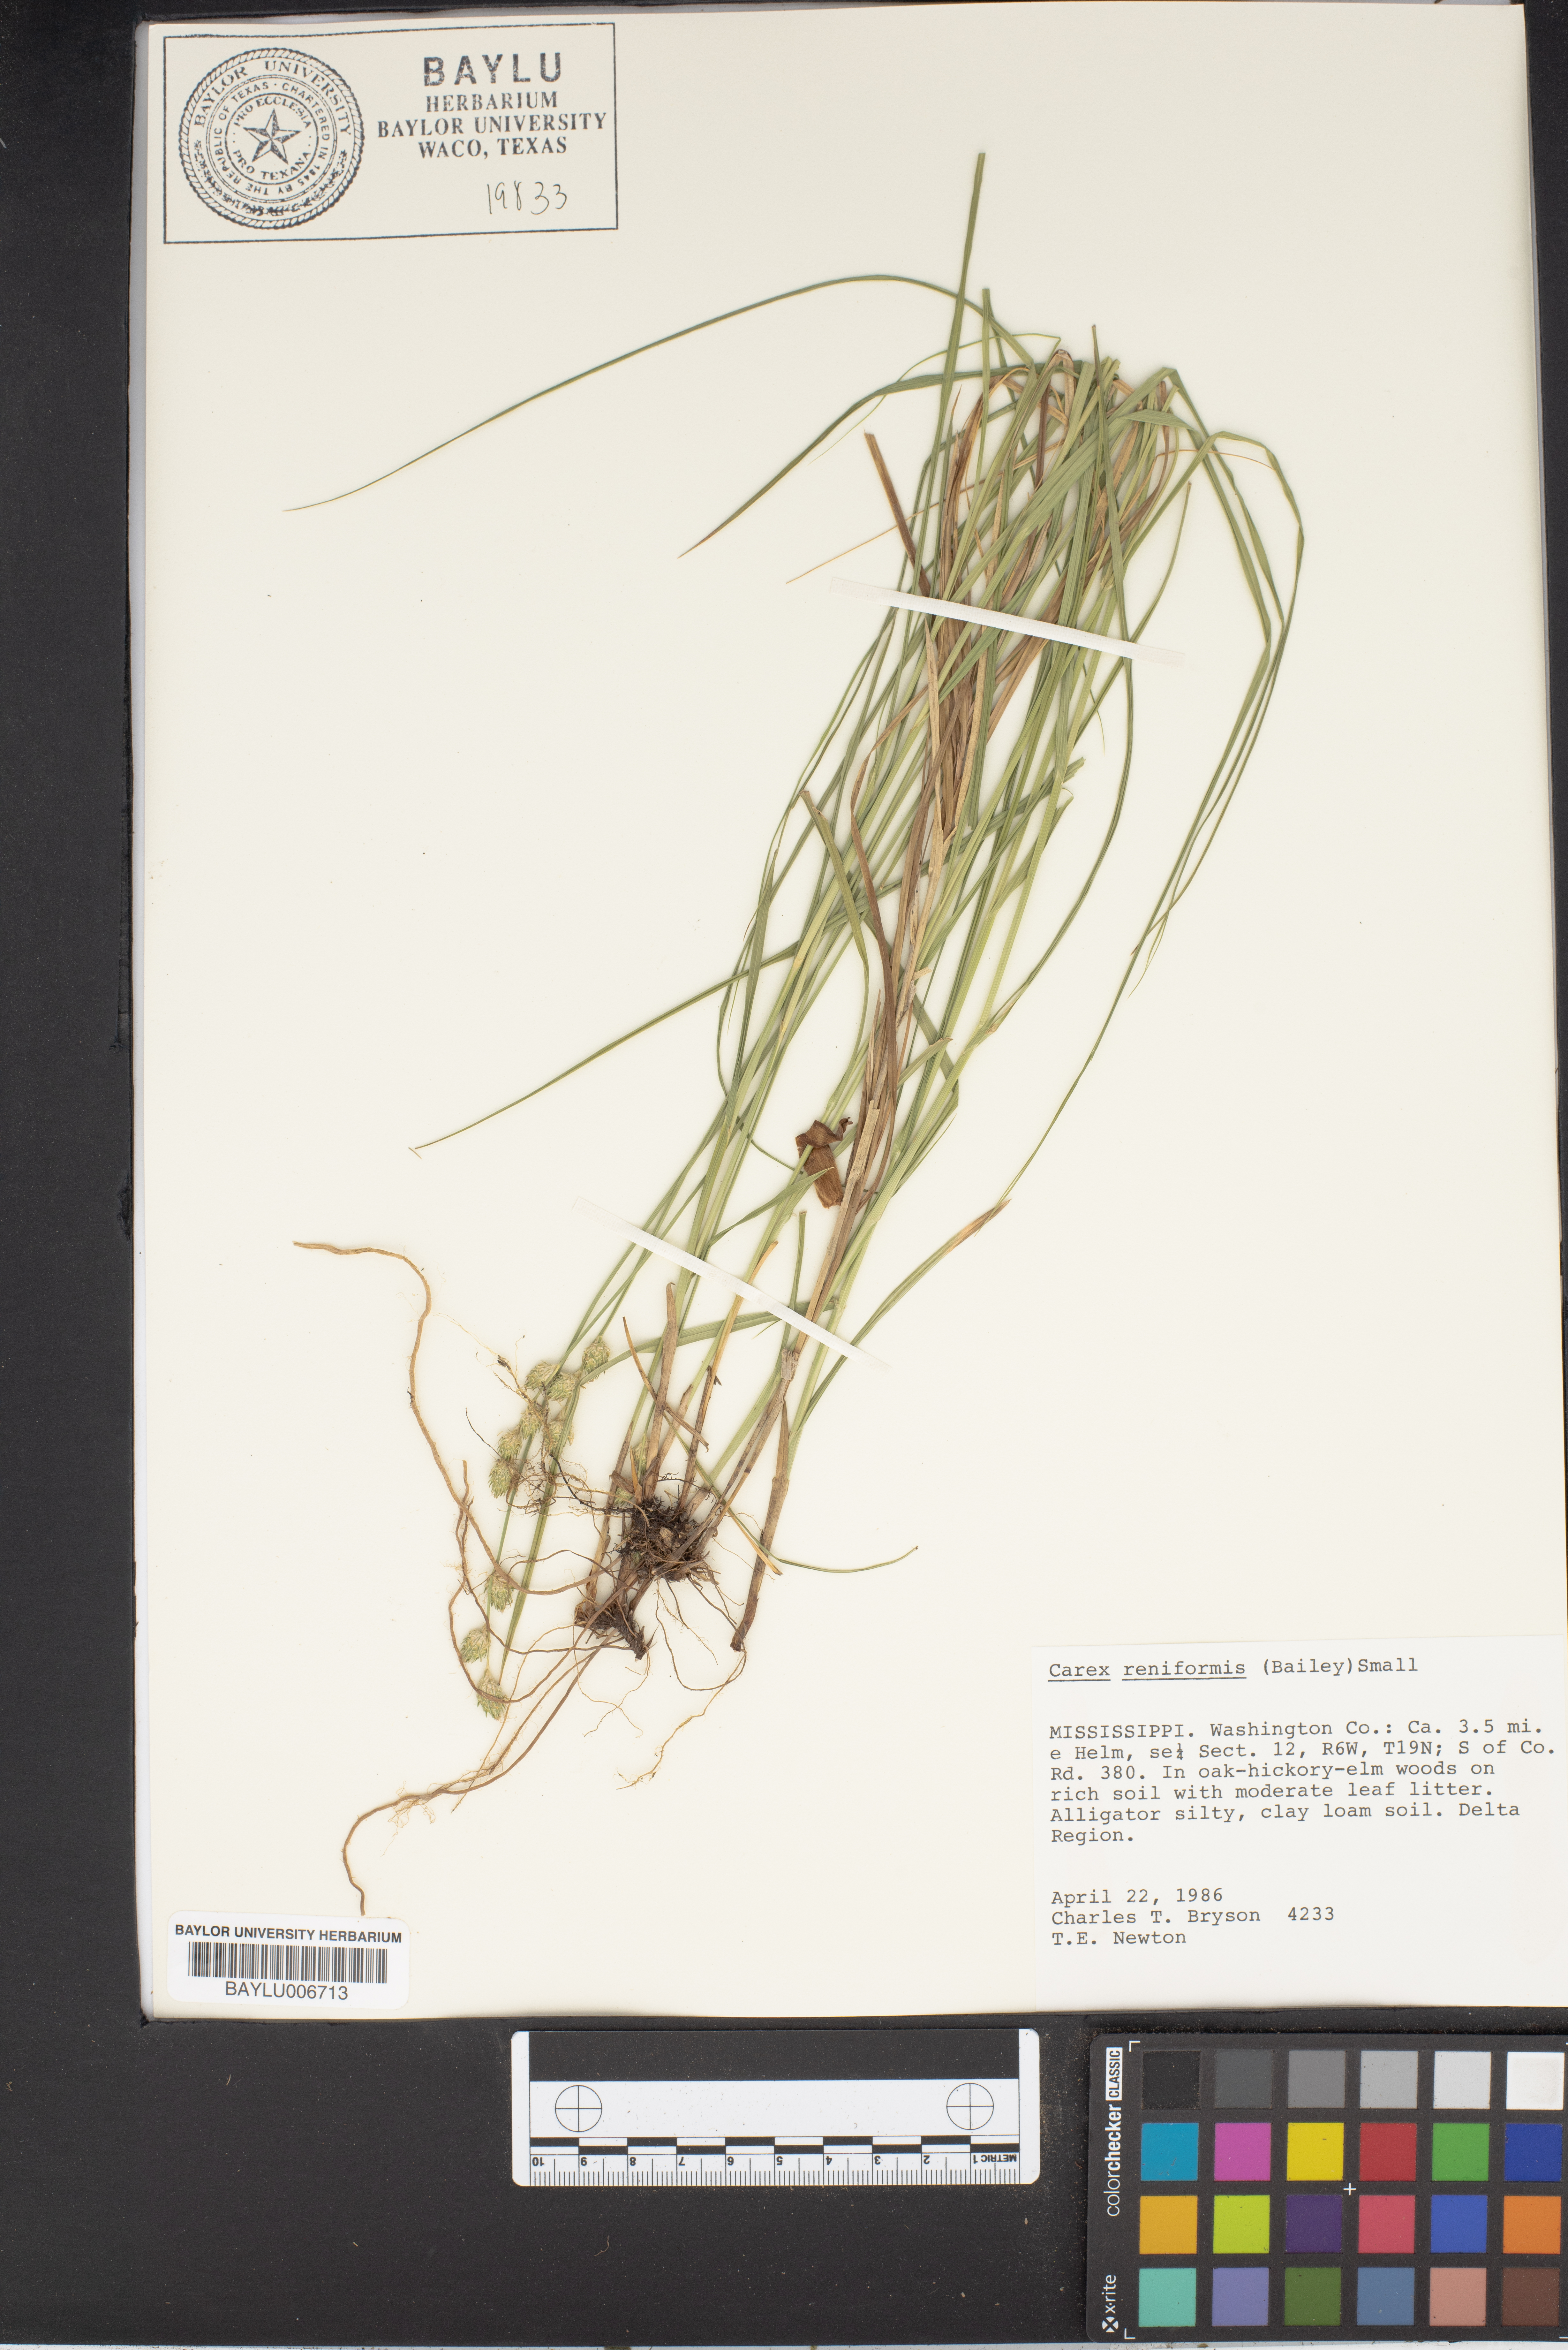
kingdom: Plantae
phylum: Tracheophyta
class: Liliopsida
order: Poales
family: Cyperaceae
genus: Carex
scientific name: Carex reniformis
